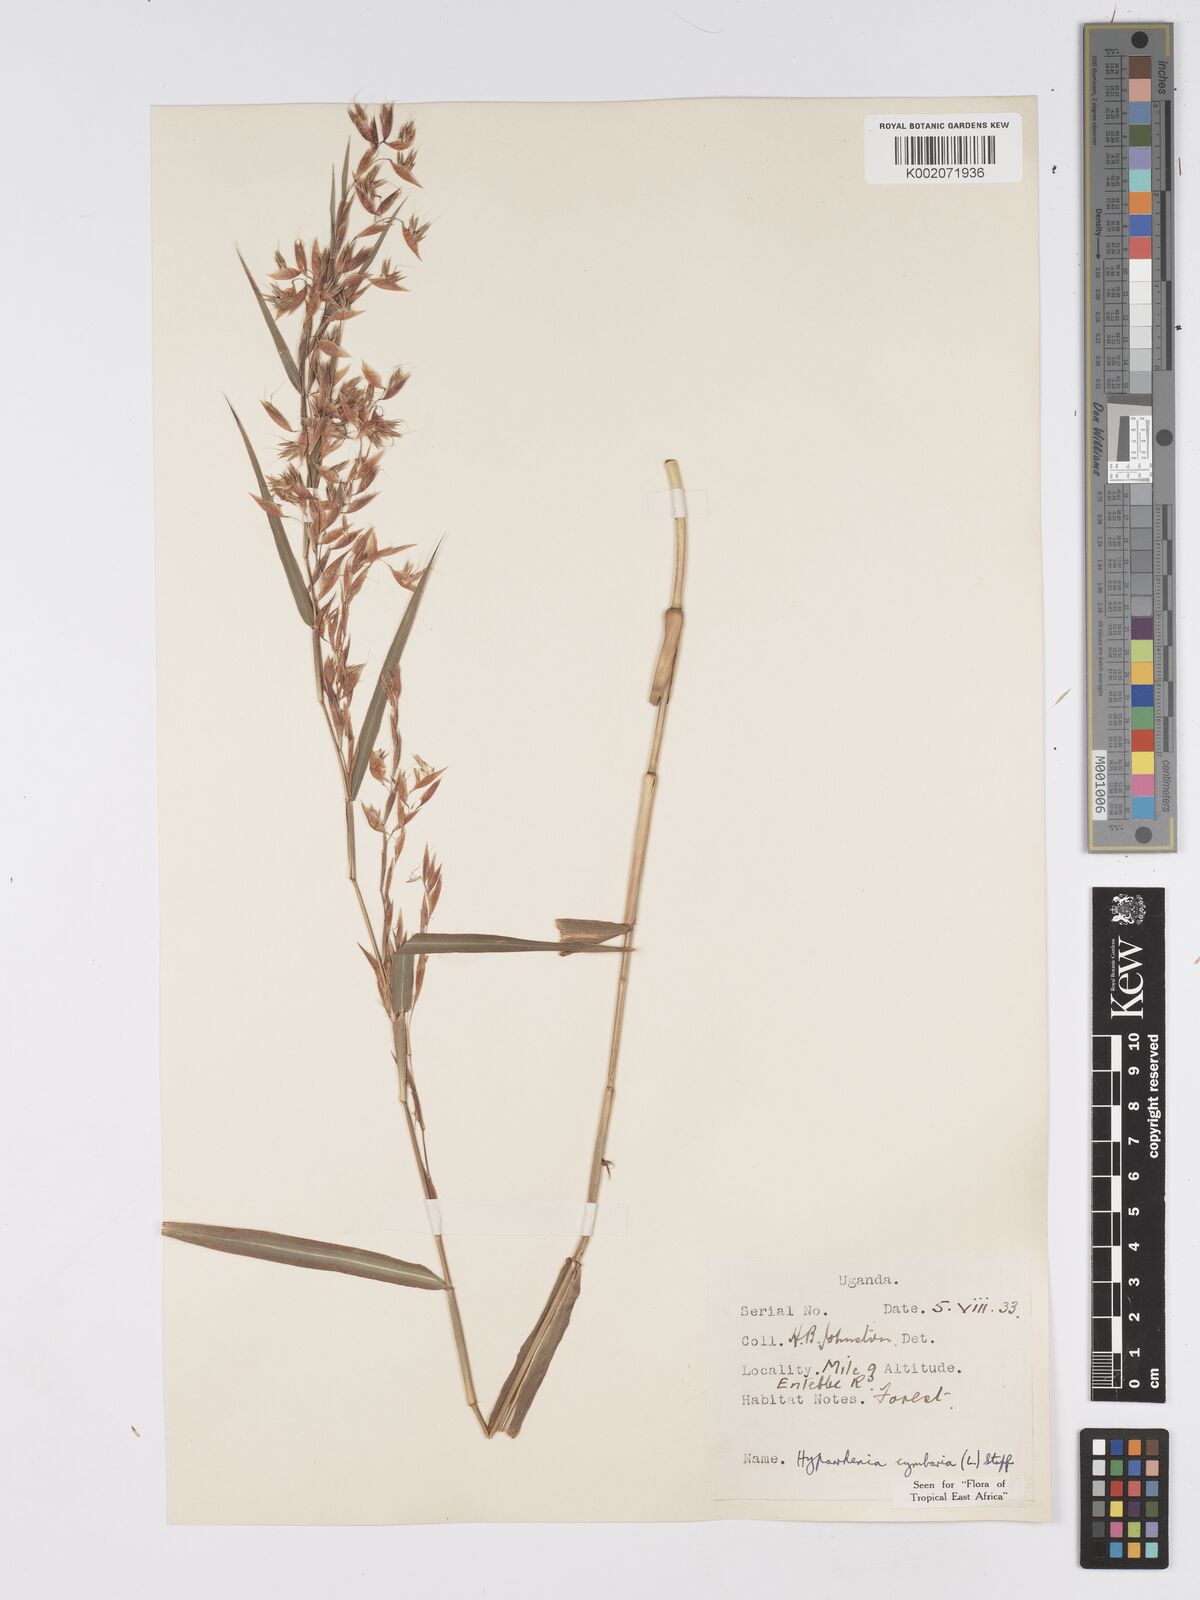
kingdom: Plantae
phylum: Tracheophyta
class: Liliopsida
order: Poales
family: Poaceae
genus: Hyparrhenia
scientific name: Hyparrhenia cymbaria
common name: Boat thatching grass
